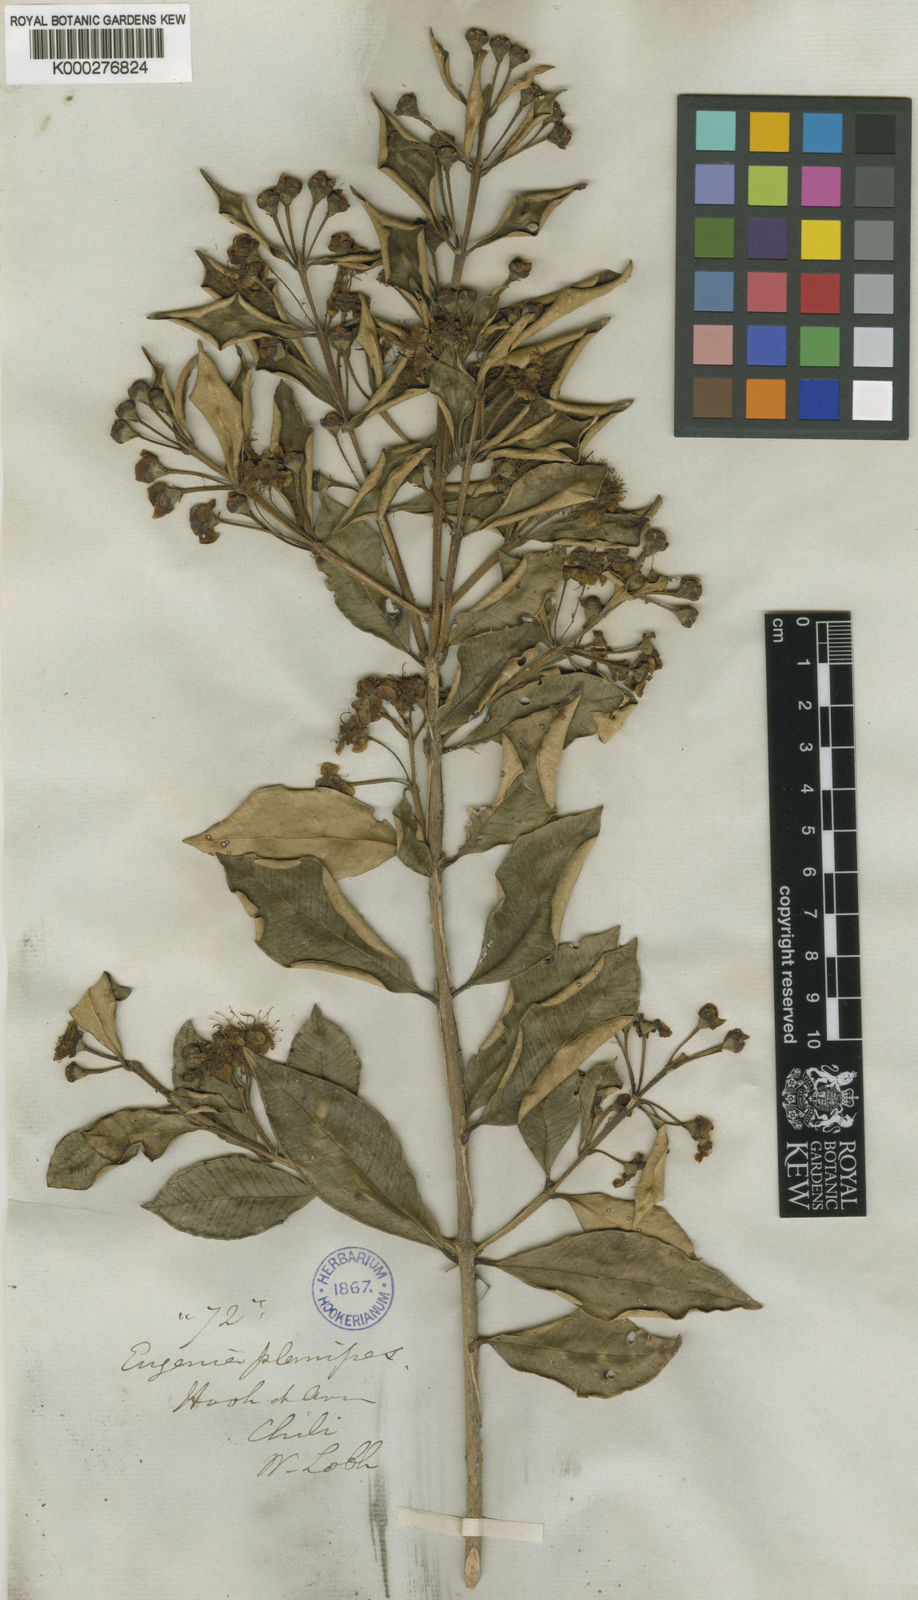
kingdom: Plantae
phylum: Tracheophyta
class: Magnoliopsida
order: Myrtales
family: Myrtaceae
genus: Myrceugenia
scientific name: Myrceugenia planipes
